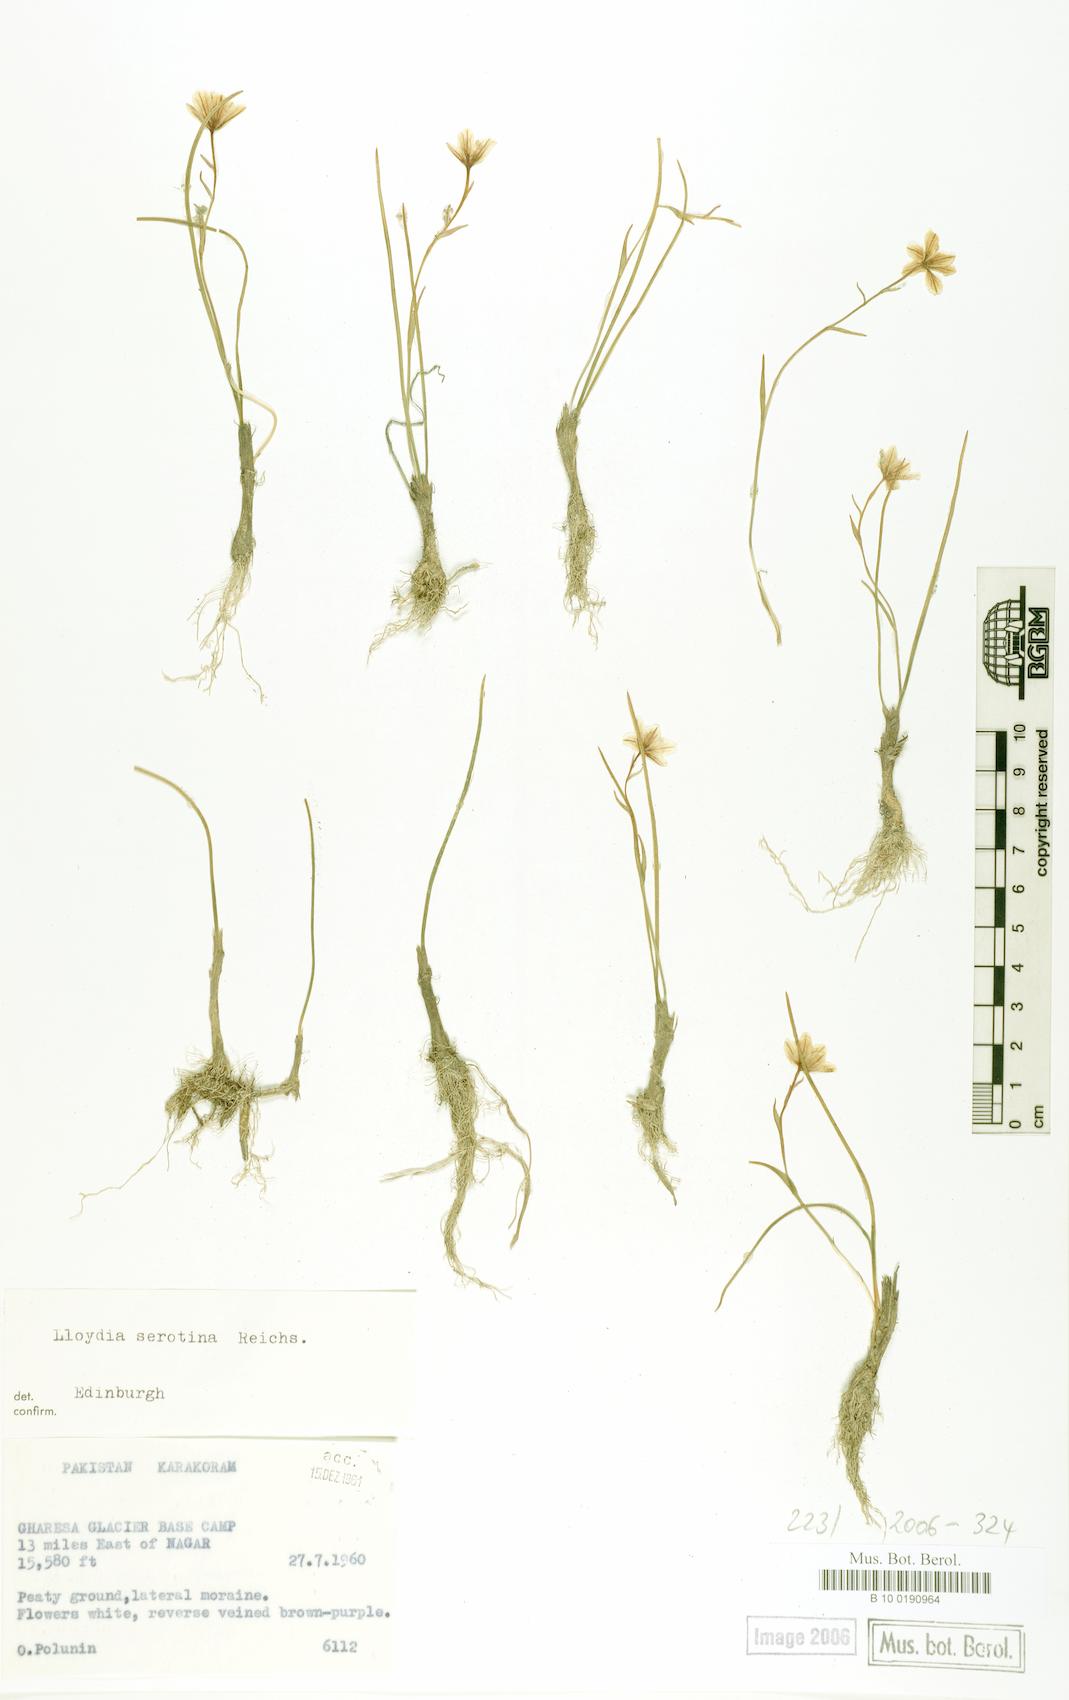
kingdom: Plantae
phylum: Tracheophyta
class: Liliopsida
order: Liliales
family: Liliaceae
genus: Gagea
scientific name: Gagea serotina
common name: Snowdon lily
